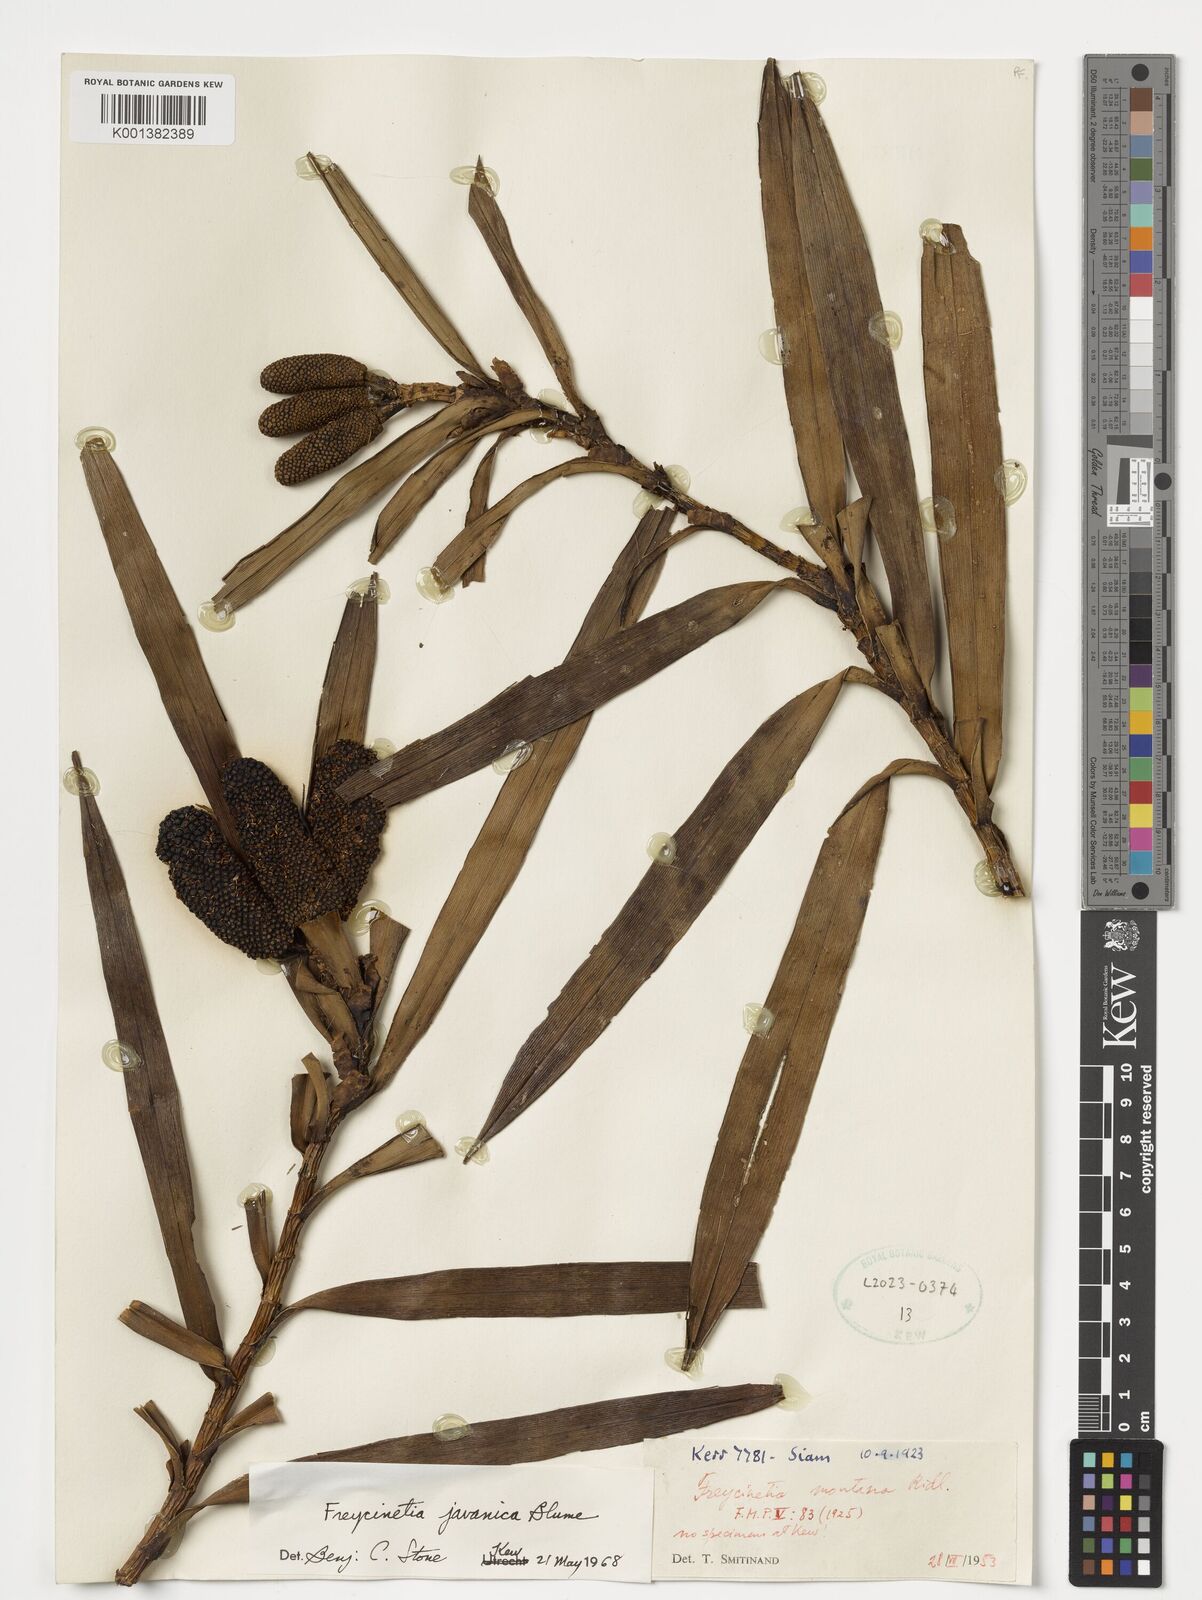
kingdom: Plantae
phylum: Tracheophyta
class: Liliopsida
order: Pandanales
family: Pandanaceae
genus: Freycinetia
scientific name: Freycinetia javanica
